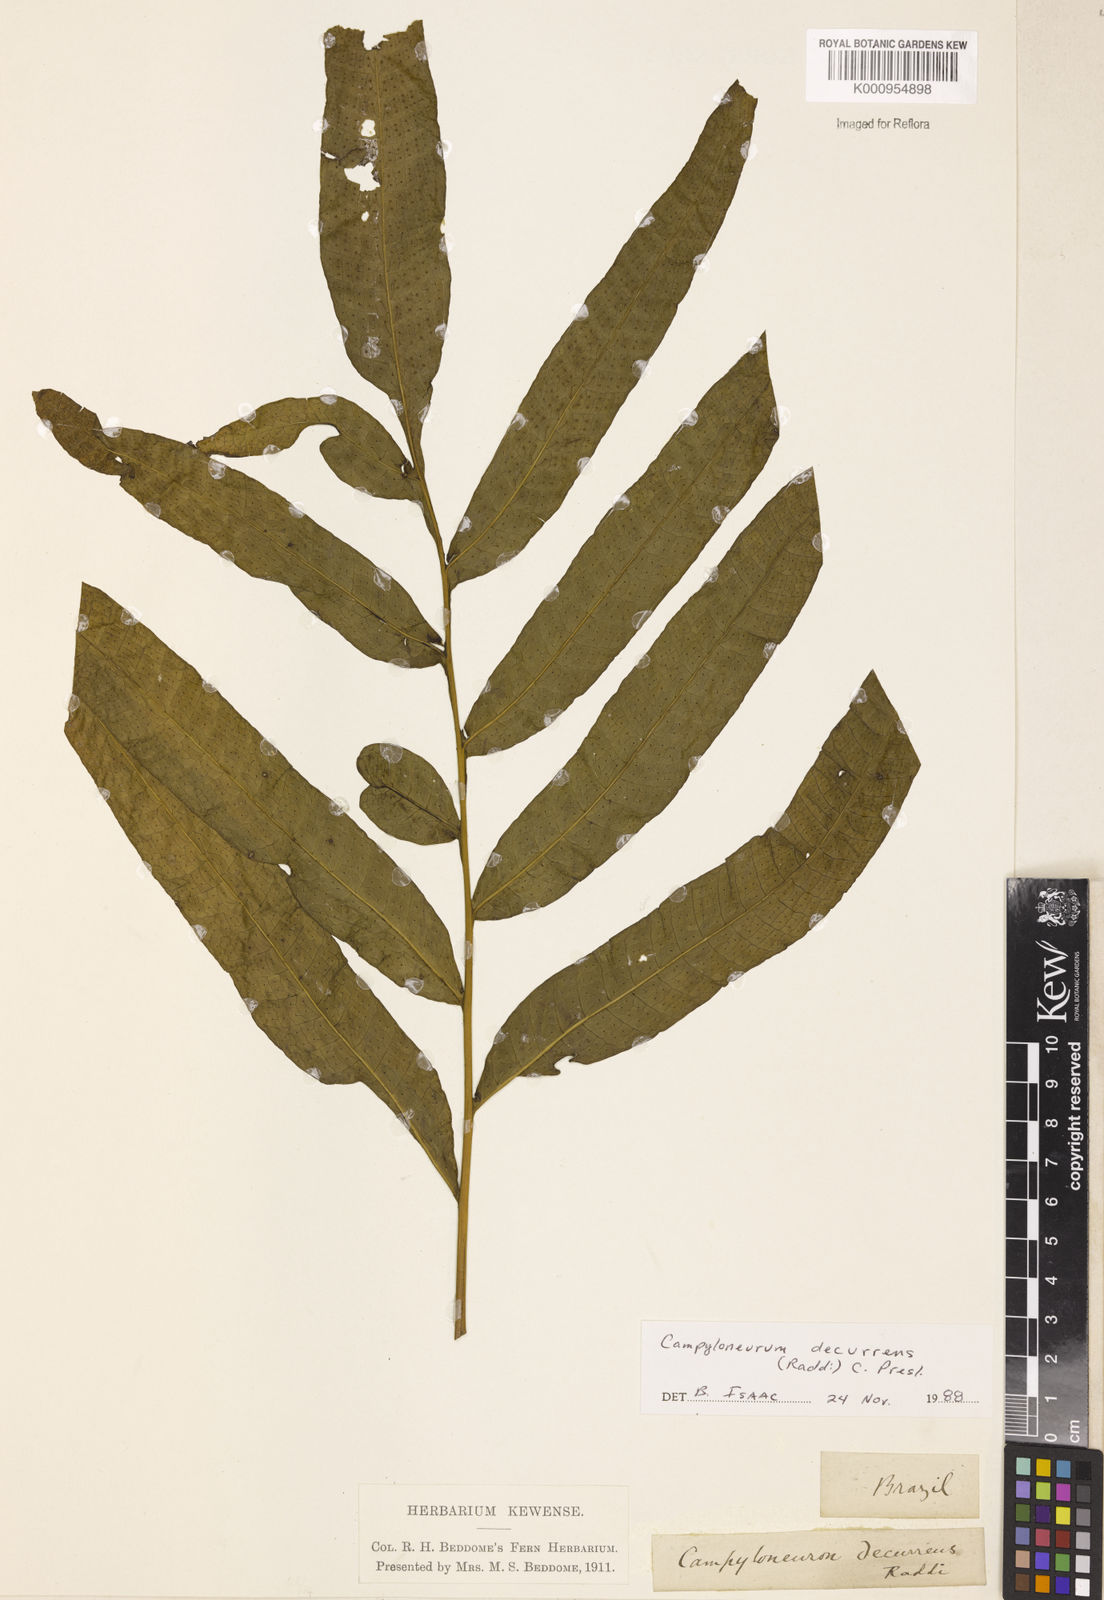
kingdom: Plantae
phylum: Tracheophyta
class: Polypodiopsida
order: Polypodiales
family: Polypodiaceae
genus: Campyloneurum
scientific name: Campyloneurum decurrens
